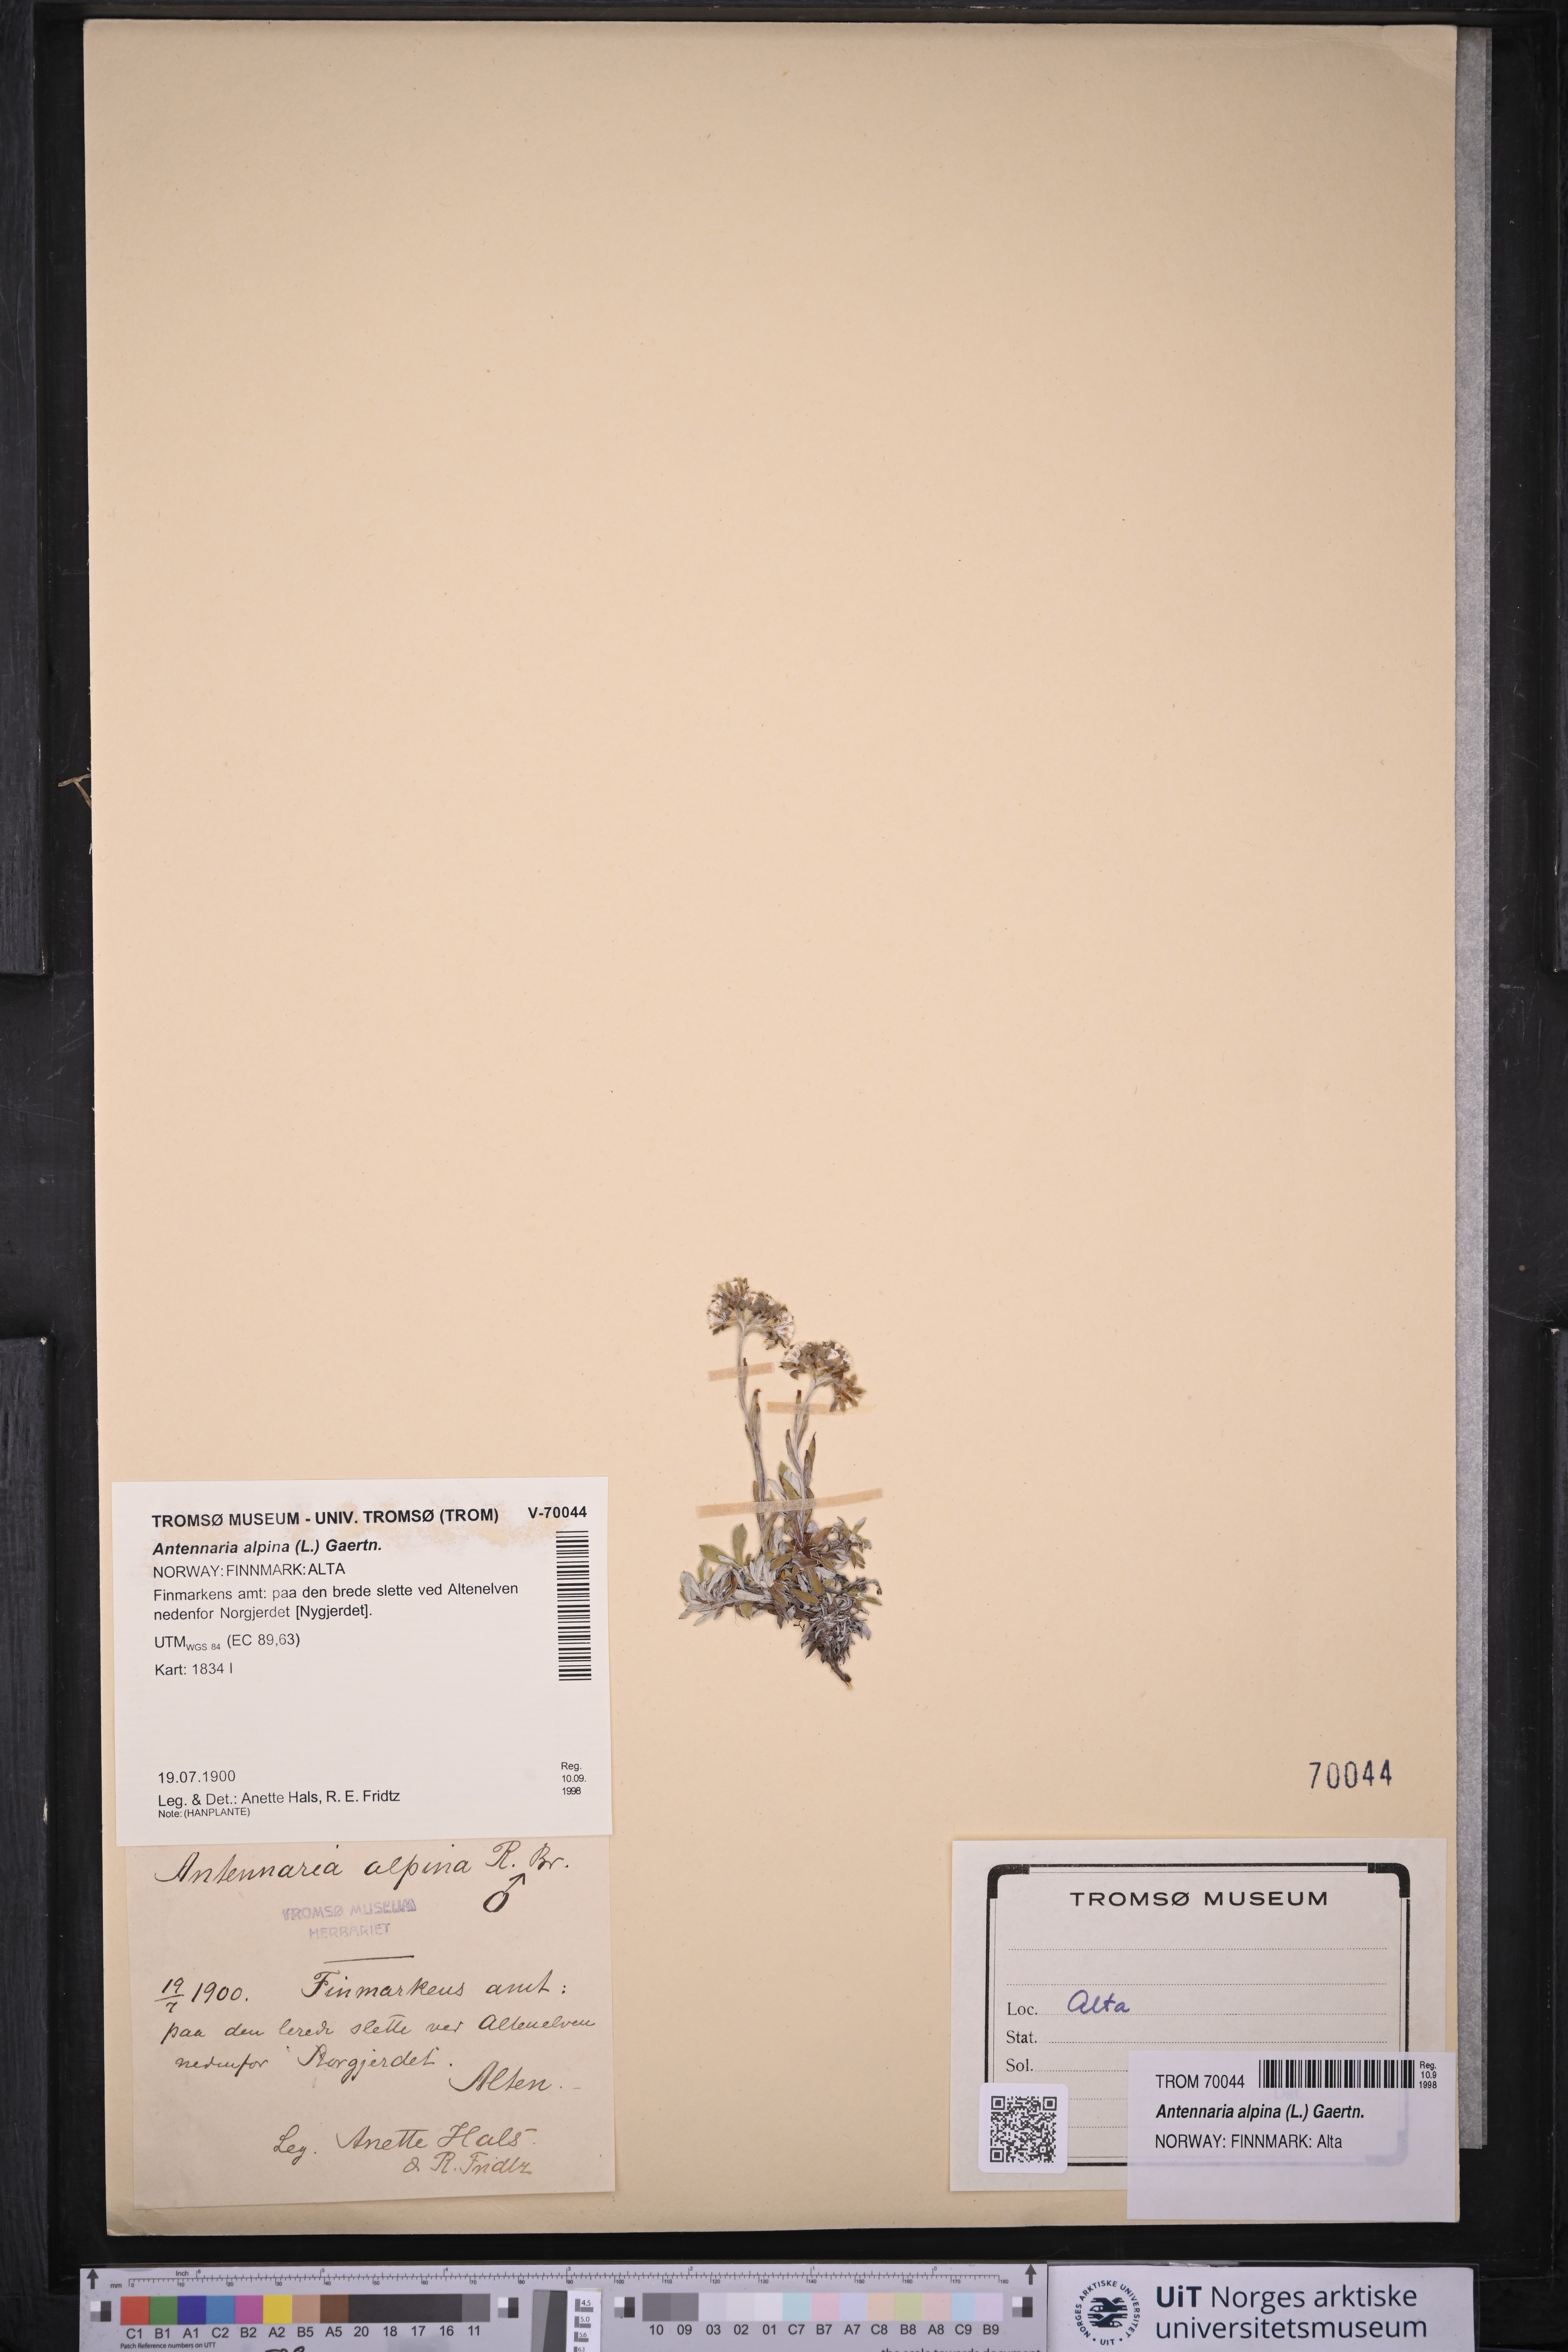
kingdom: Plantae
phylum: Tracheophyta
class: Magnoliopsida
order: Asterales
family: Asteraceae
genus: Antennaria
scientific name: Antennaria alpina
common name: Alpine pussytoes
